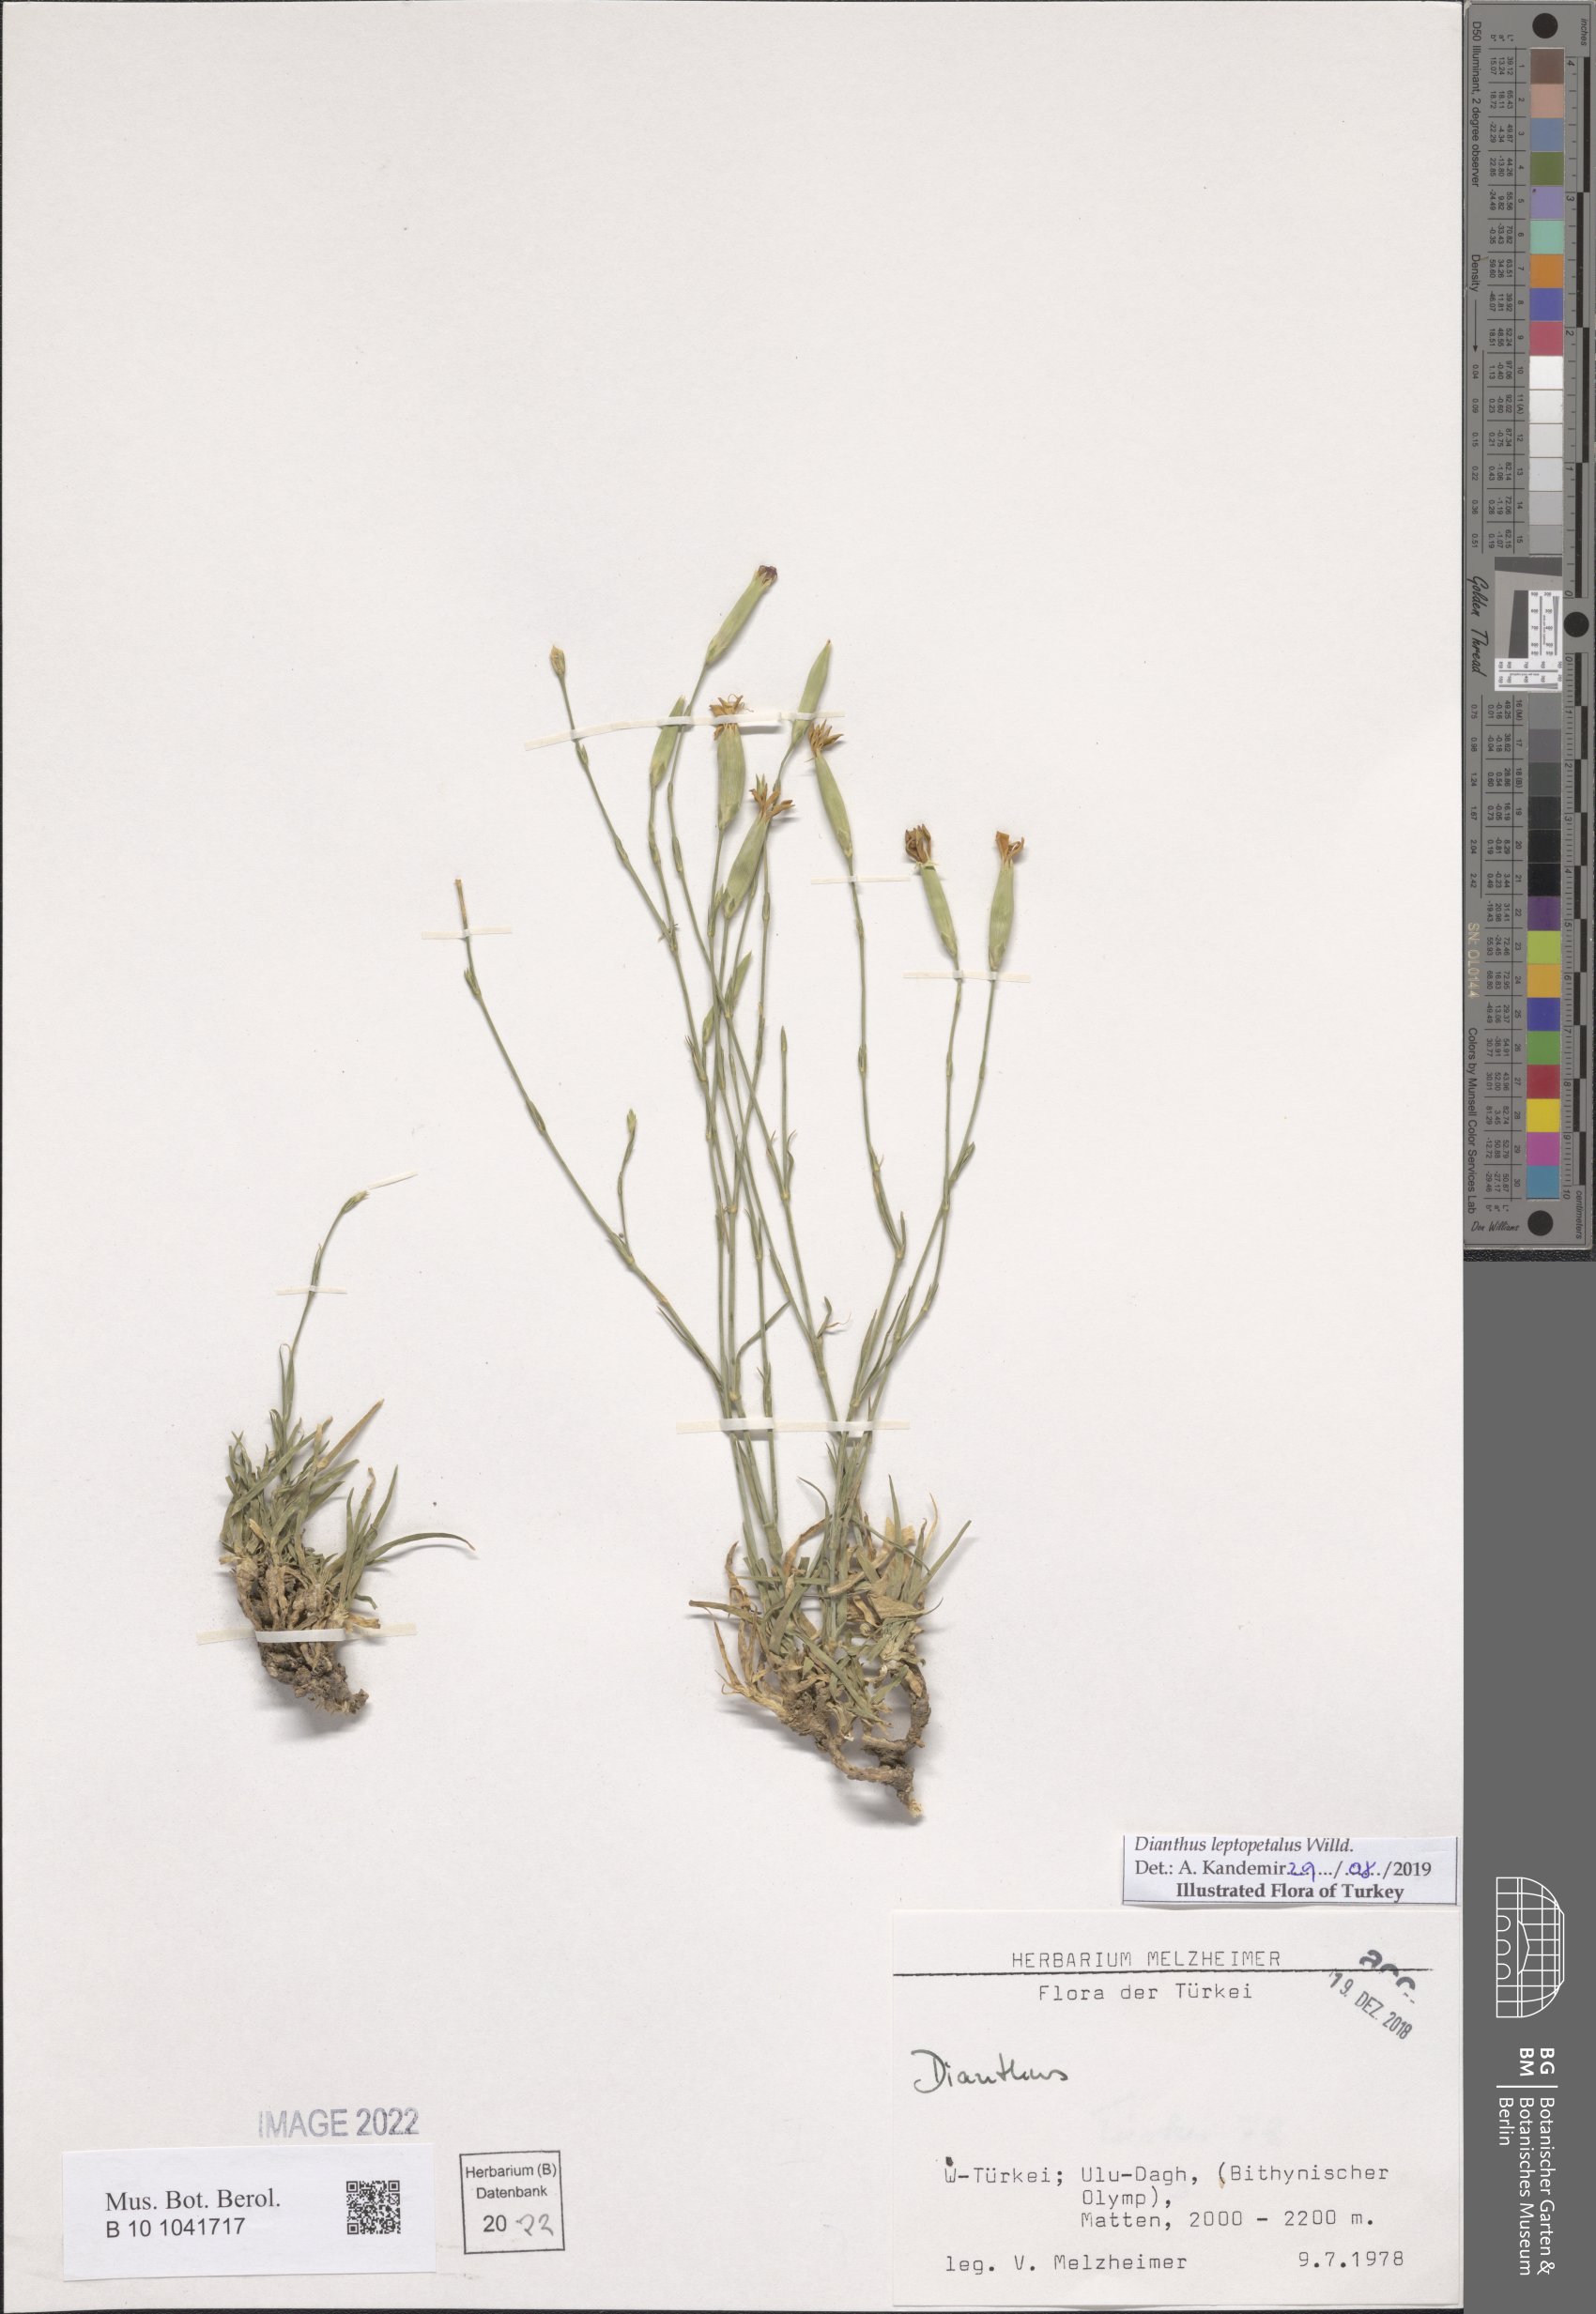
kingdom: Plantae
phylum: Tracheophyta
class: Magnoliopsida
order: Caryophyllales
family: Caryophyllaceae
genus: Dianthus
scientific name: Dianthus leptopetalus
